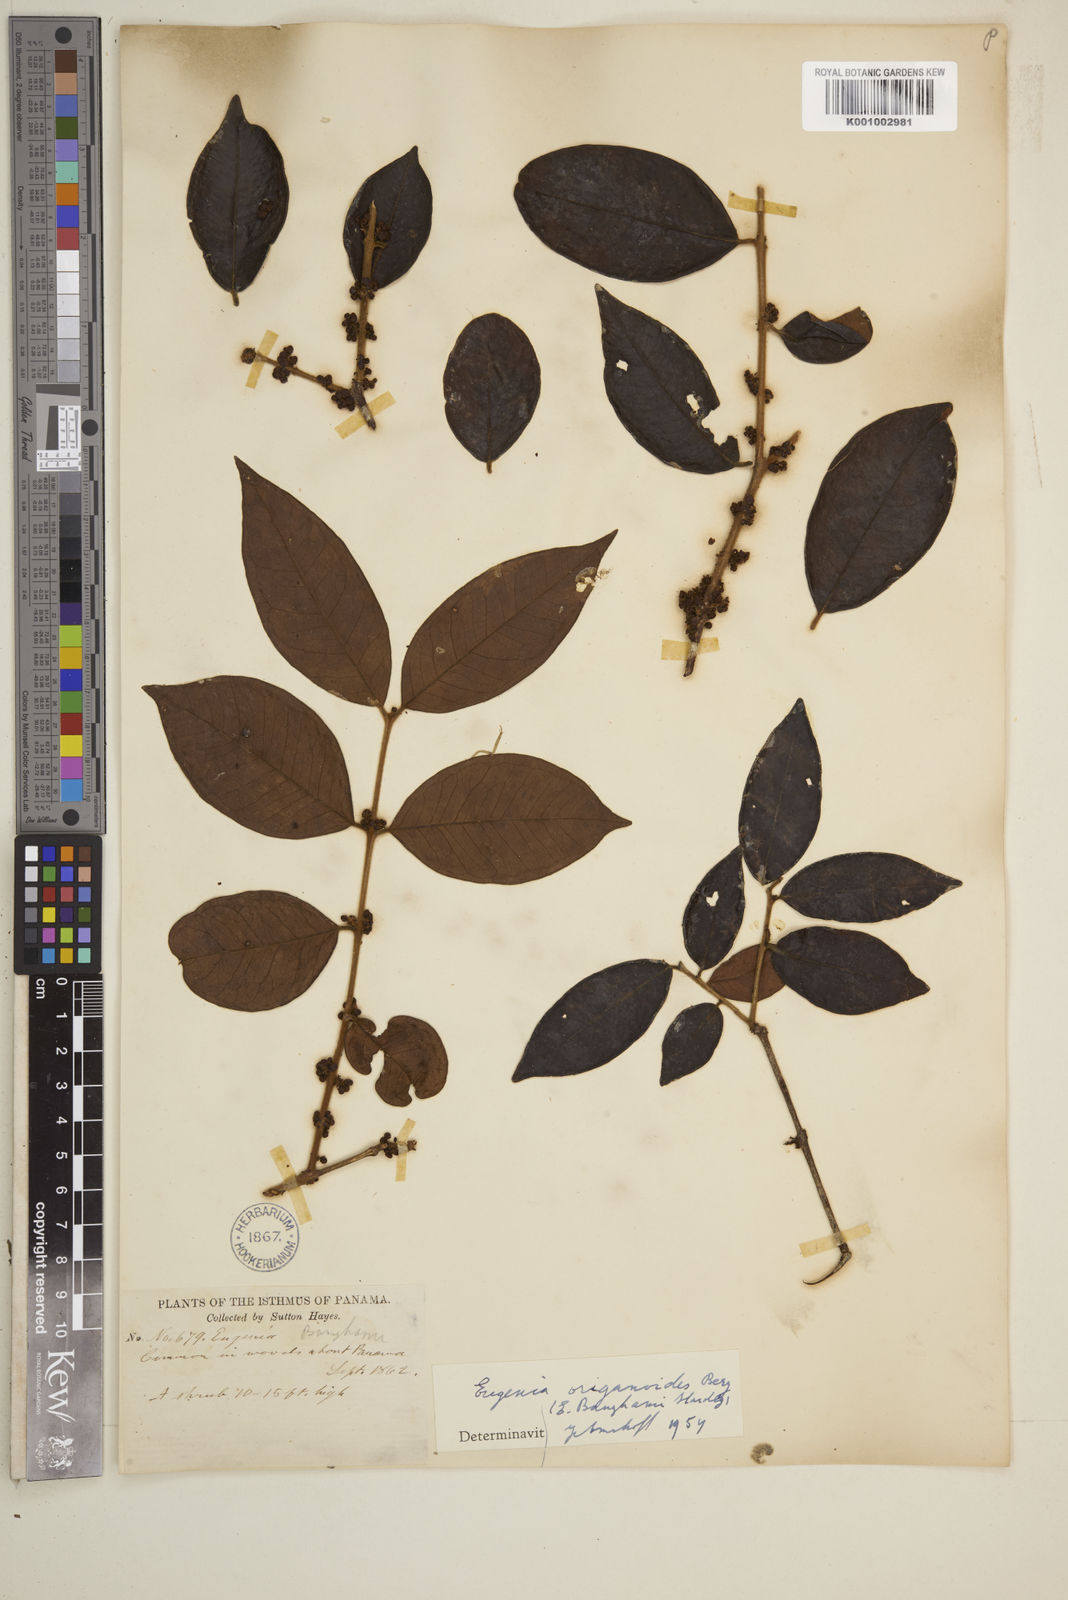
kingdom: Plantae
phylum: Tracheophyta
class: Magnoliopsida
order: Myrtales
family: Myrtaceae
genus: Eugenia
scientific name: Eugenia venezuelensis
